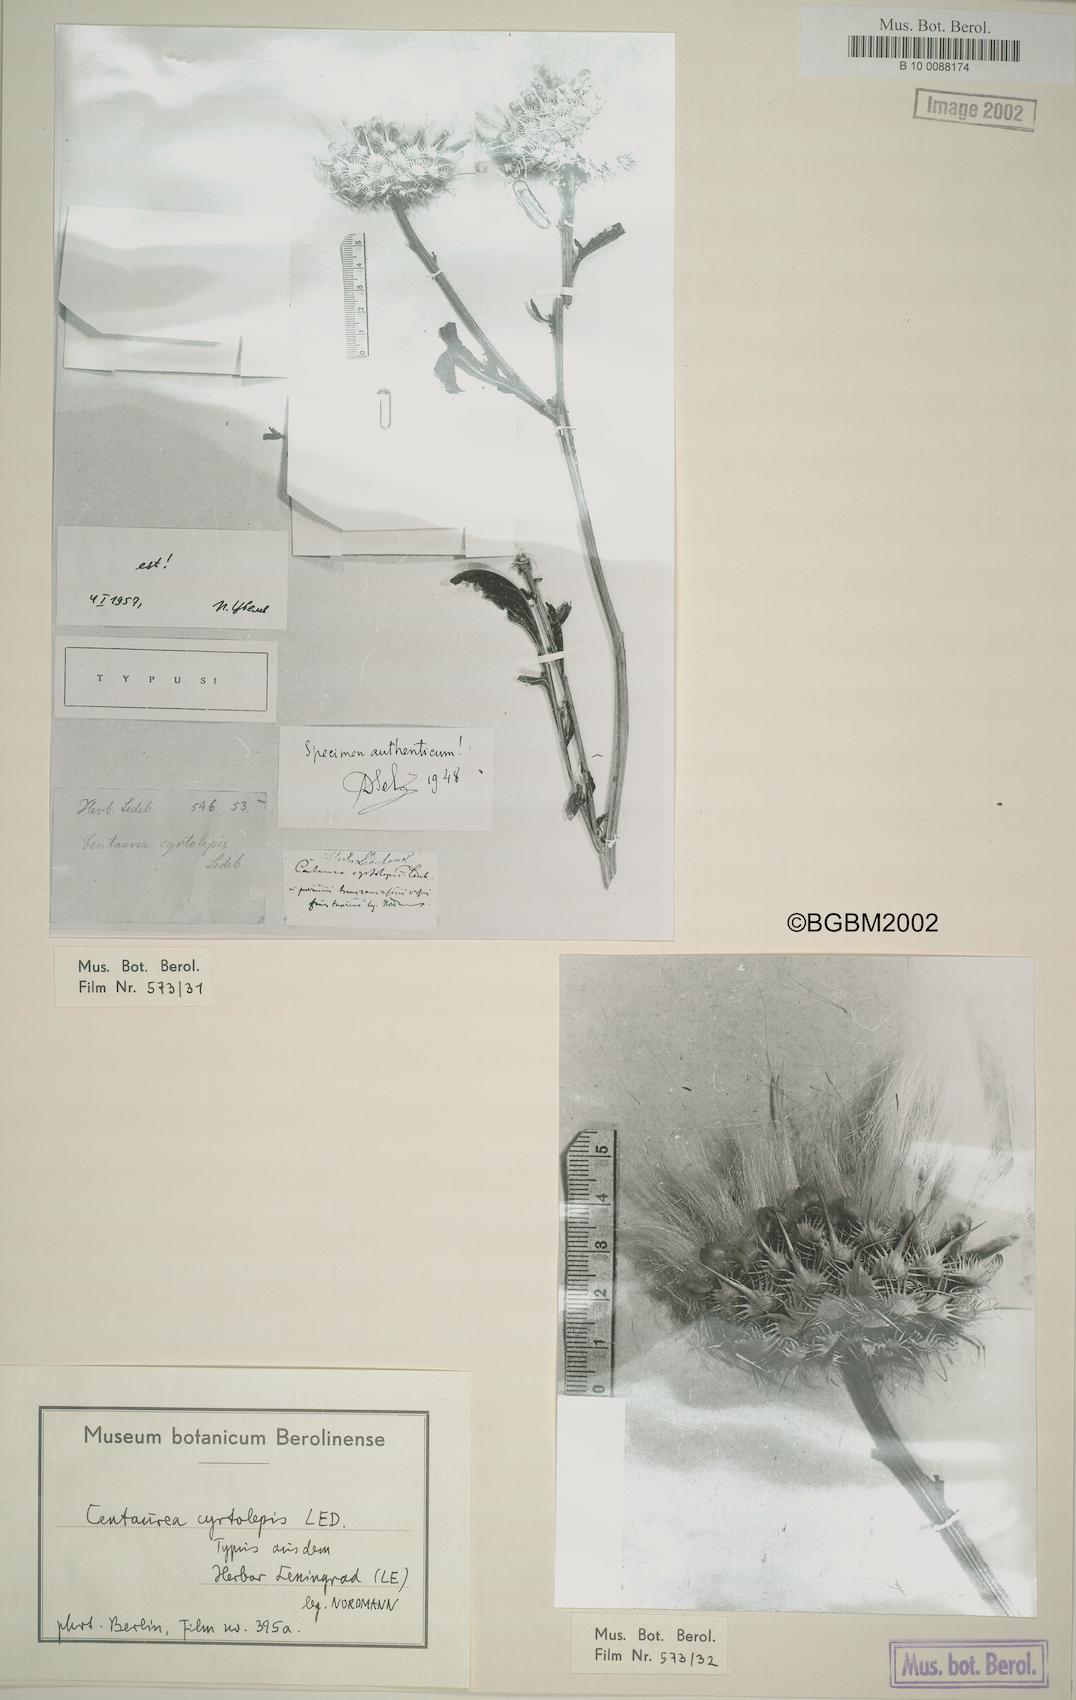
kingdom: Plantae
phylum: Tracheophyta
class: Magnoliopsida
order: Asterales
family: Asteraceae
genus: Centaurea
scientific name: Centaurea urvillei
